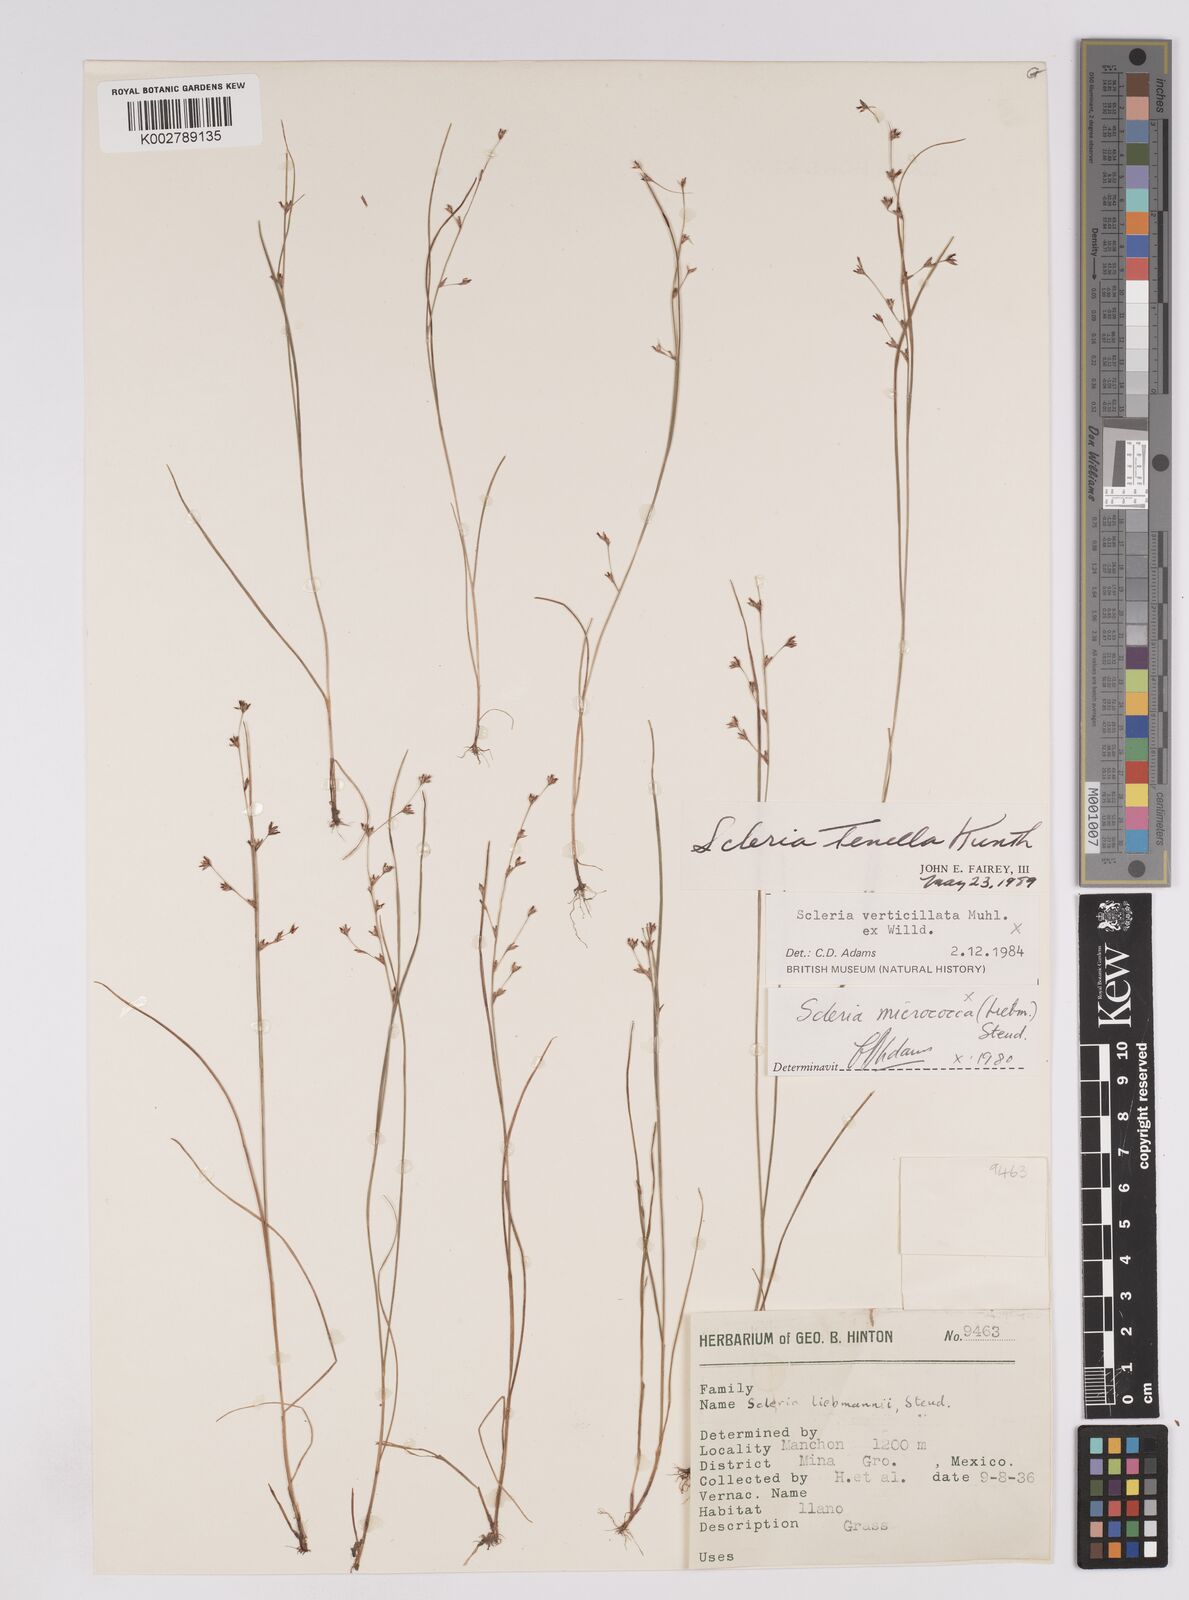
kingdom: Plantae
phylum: Tracheophyta
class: Liliopsida
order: Poales
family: Cyperaceae
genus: Scleria
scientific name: Scleria tenella
